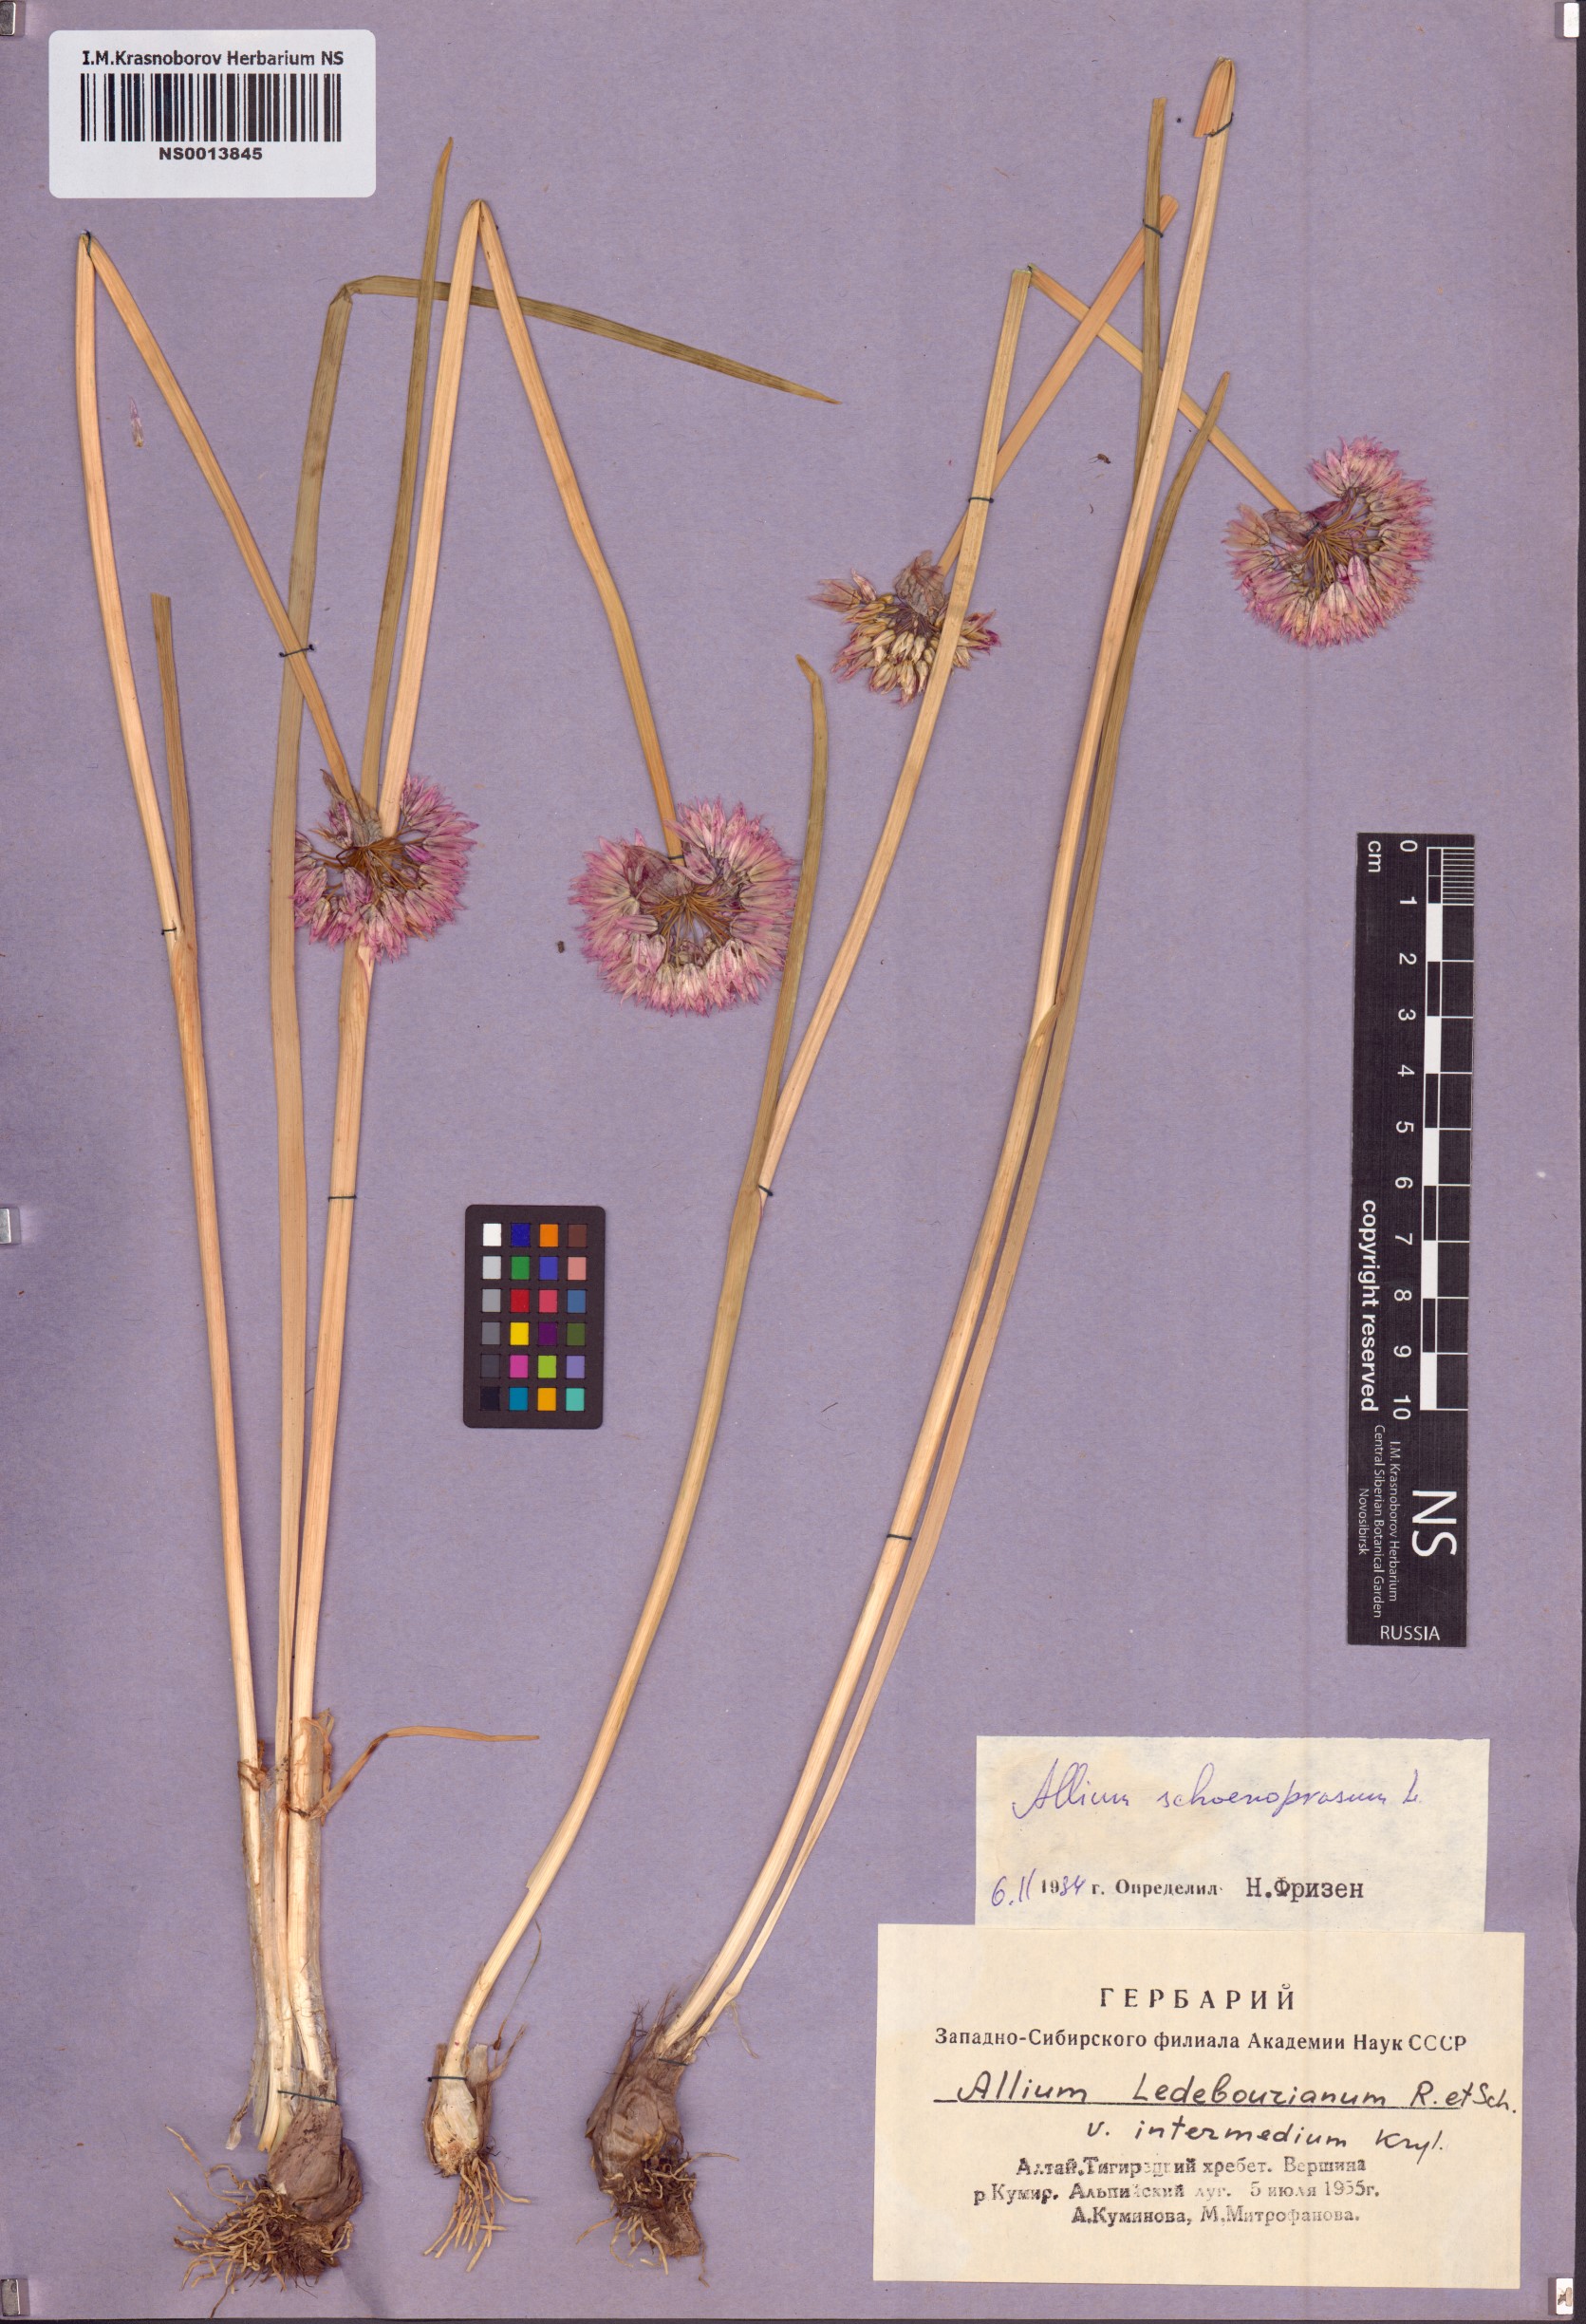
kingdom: Plantae
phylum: Tracheophyta
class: Liliopsida
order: Asparagales
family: Amaryllidaceae
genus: Allium
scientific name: Allium schoenoprasum
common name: Chives
